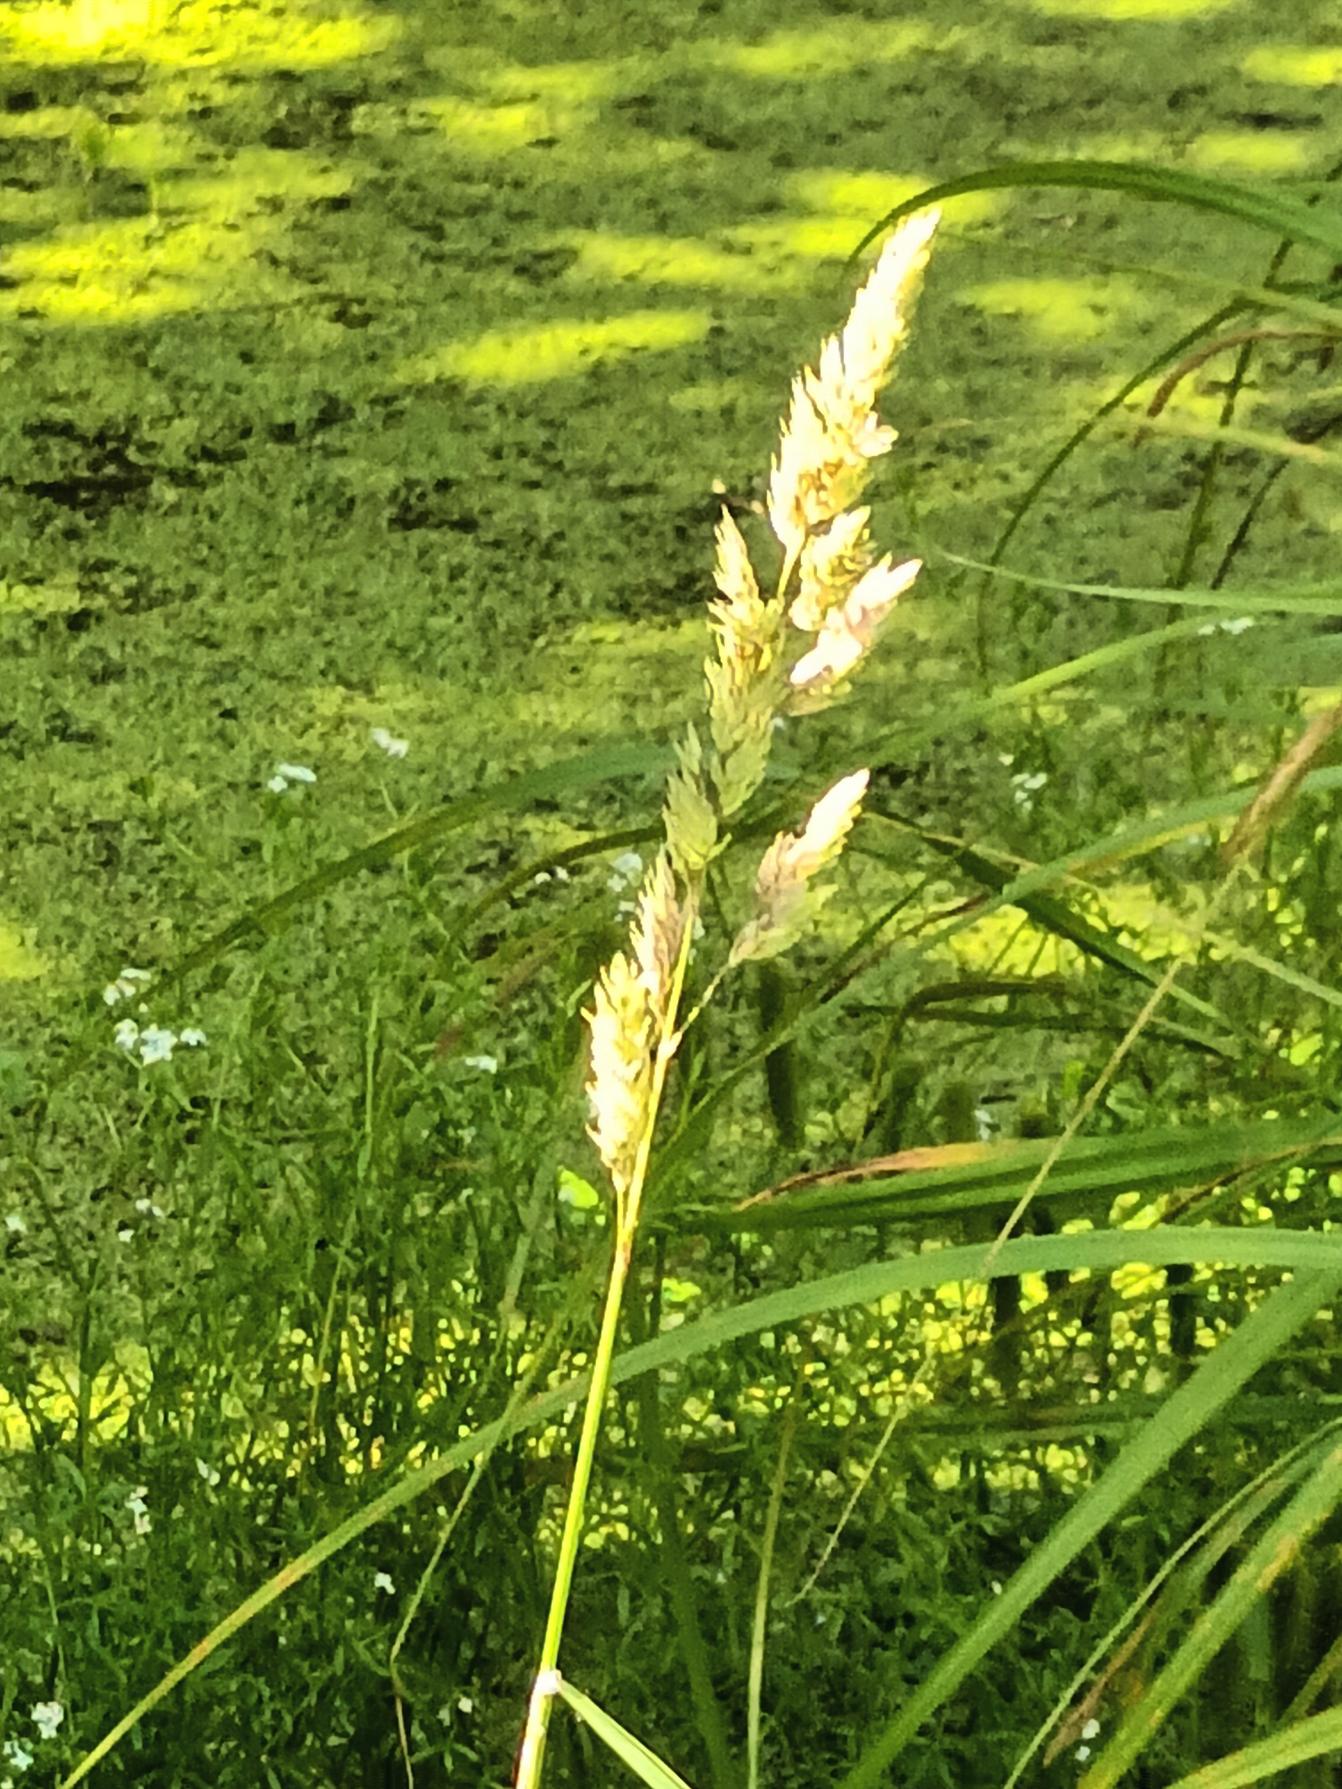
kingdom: Plantae
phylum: Tracheophyta
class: Liliopsida
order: Poales
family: Poaceae
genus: Phalaris
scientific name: Phalaris arundinacea
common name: Rørgræs
